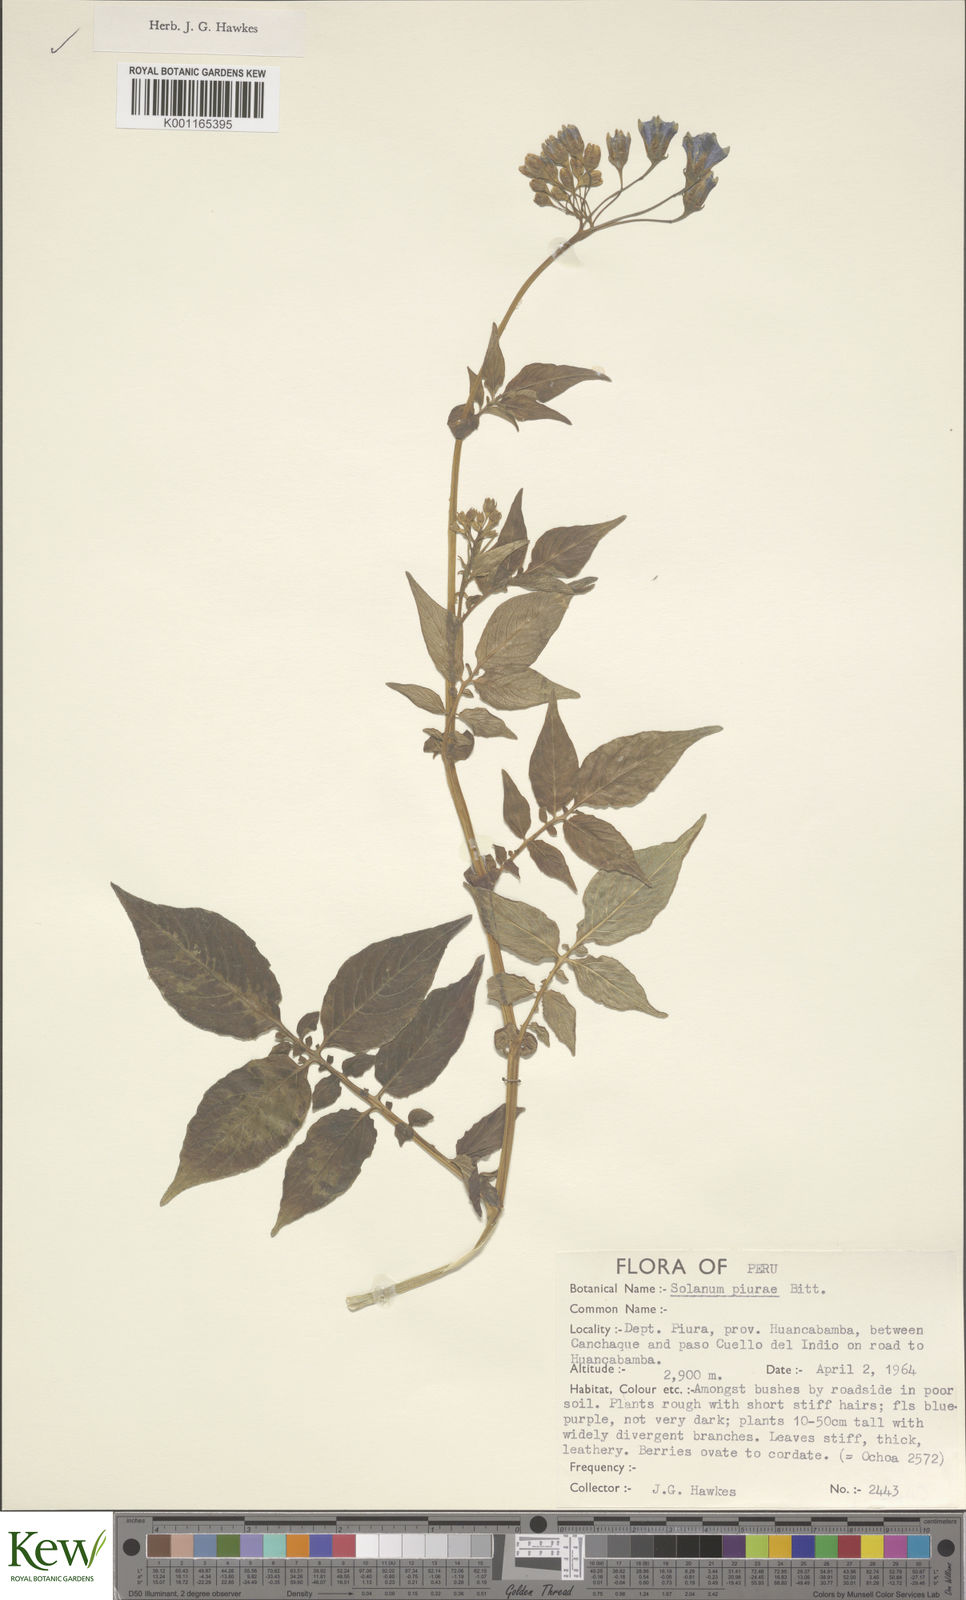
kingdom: Plantae
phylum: Tracheophyta
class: Magnoliopsida
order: Solanales
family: Solanaceae
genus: Solanum
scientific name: Solanum piurae
